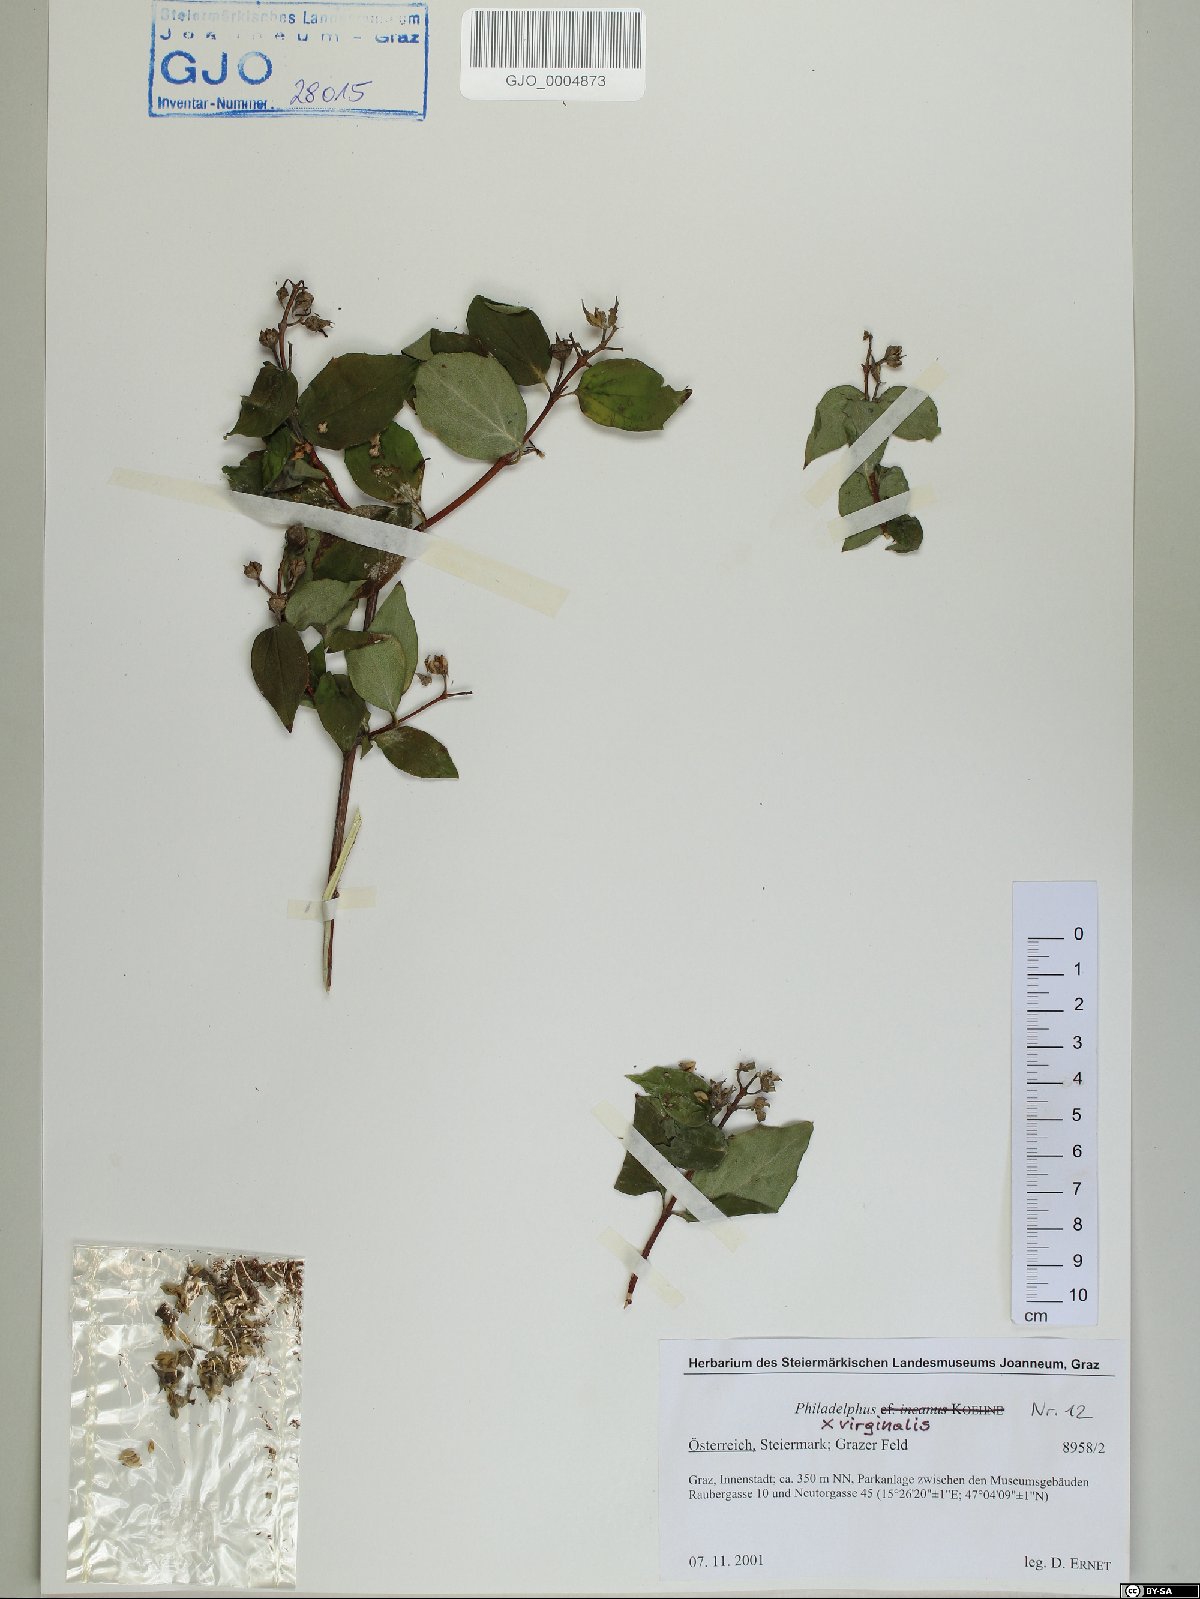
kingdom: Plantae
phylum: Tracheophyta
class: Magnoliopsida
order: Cornales
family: Hydrangeaceae
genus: Philadelphus
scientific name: Philadelphus virginalis
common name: Hairy mock orange
